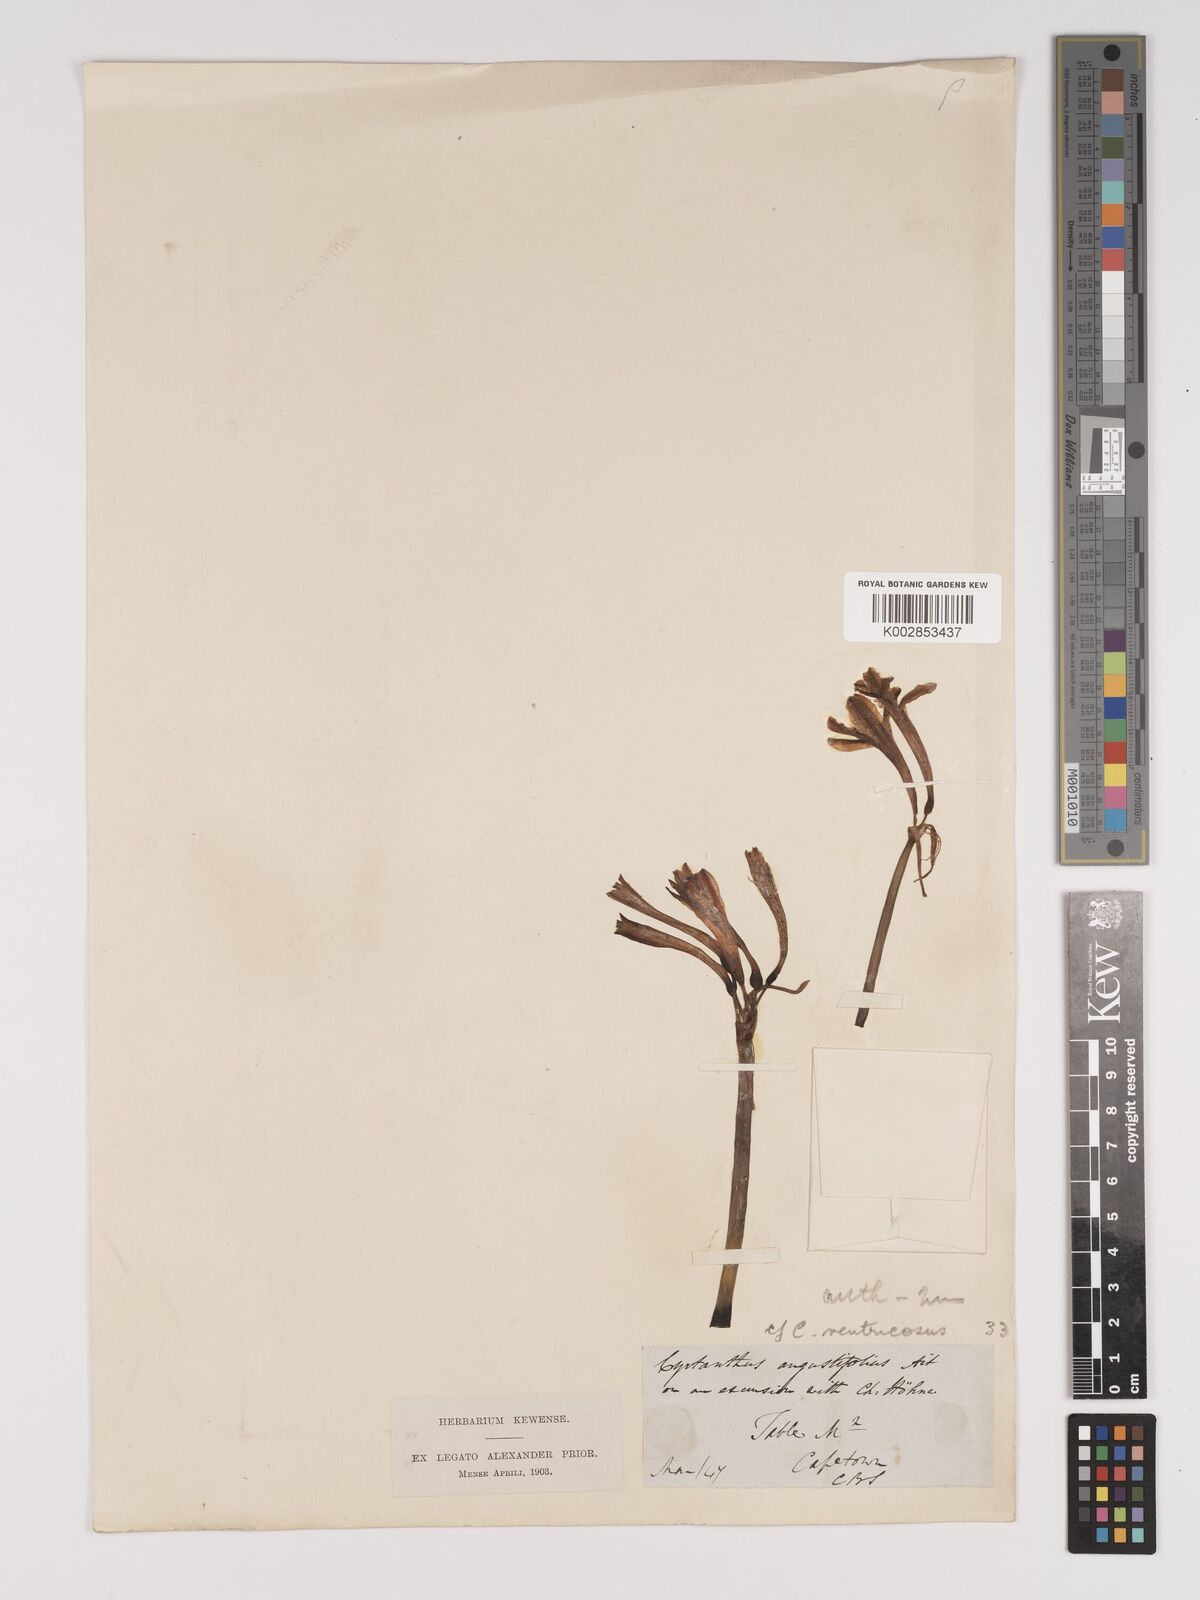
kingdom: Plantae
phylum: Tracheophyta
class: Liliopsida
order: Asparagales
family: Amaryllidaceae
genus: Cyrtanthus
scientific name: Cyrtanthus ventricosus
